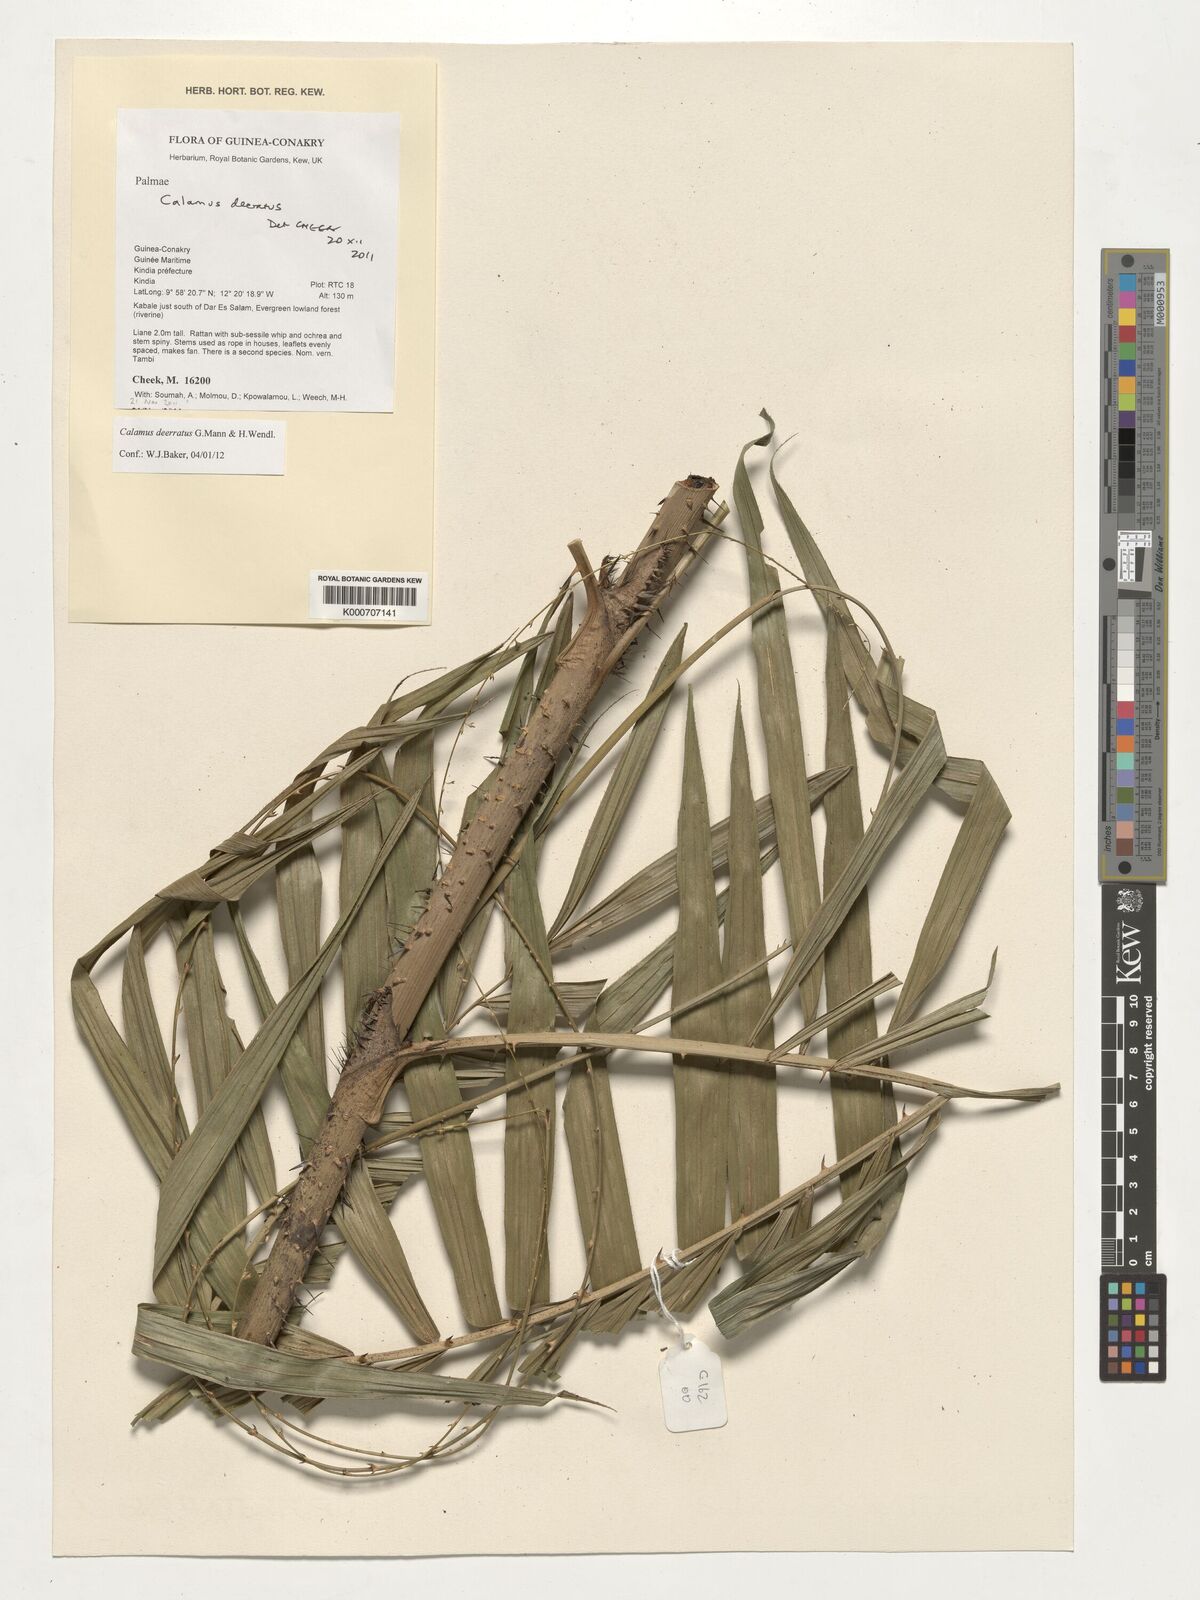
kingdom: Plantae
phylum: Tracheophyta
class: Liliopsida
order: Arecales
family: Arecaceae
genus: Calamus
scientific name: Calamus deerratus
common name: Rattan
